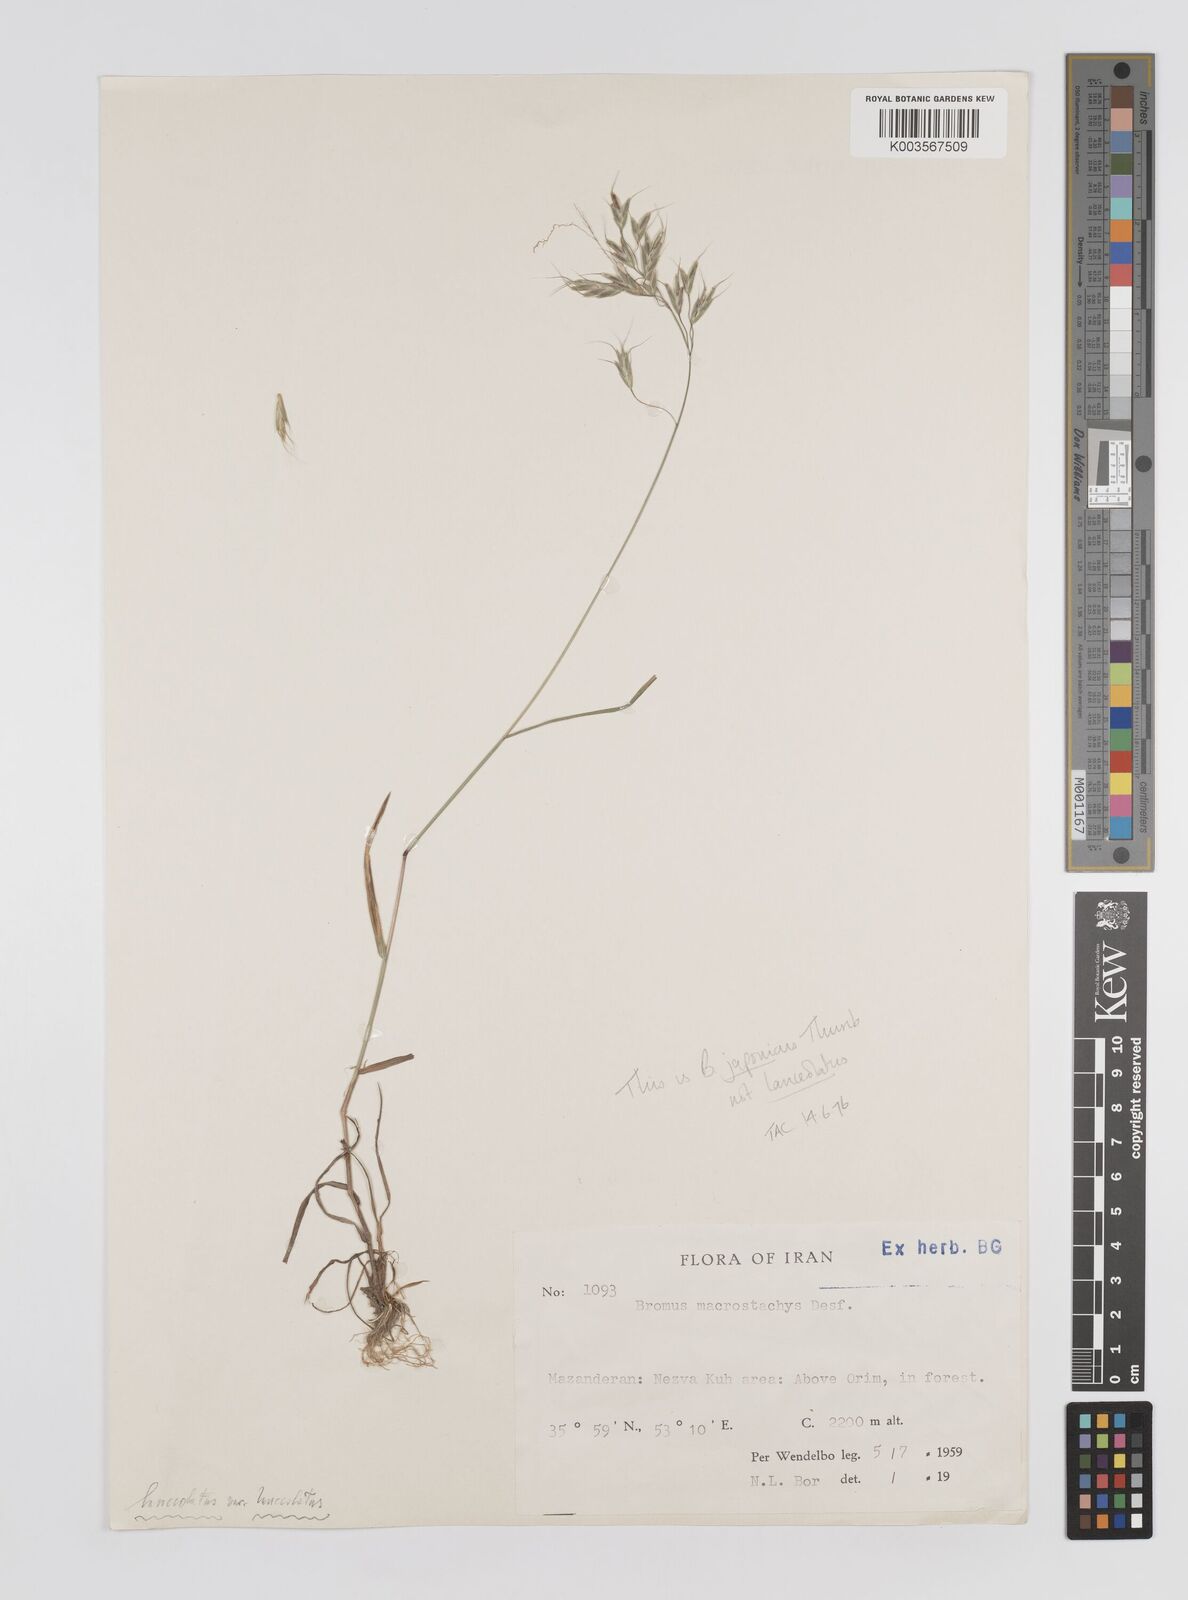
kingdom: Plantae
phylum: Tracheophyta
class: Liliopsida
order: Poales
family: Poaceae
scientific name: Poaceae
